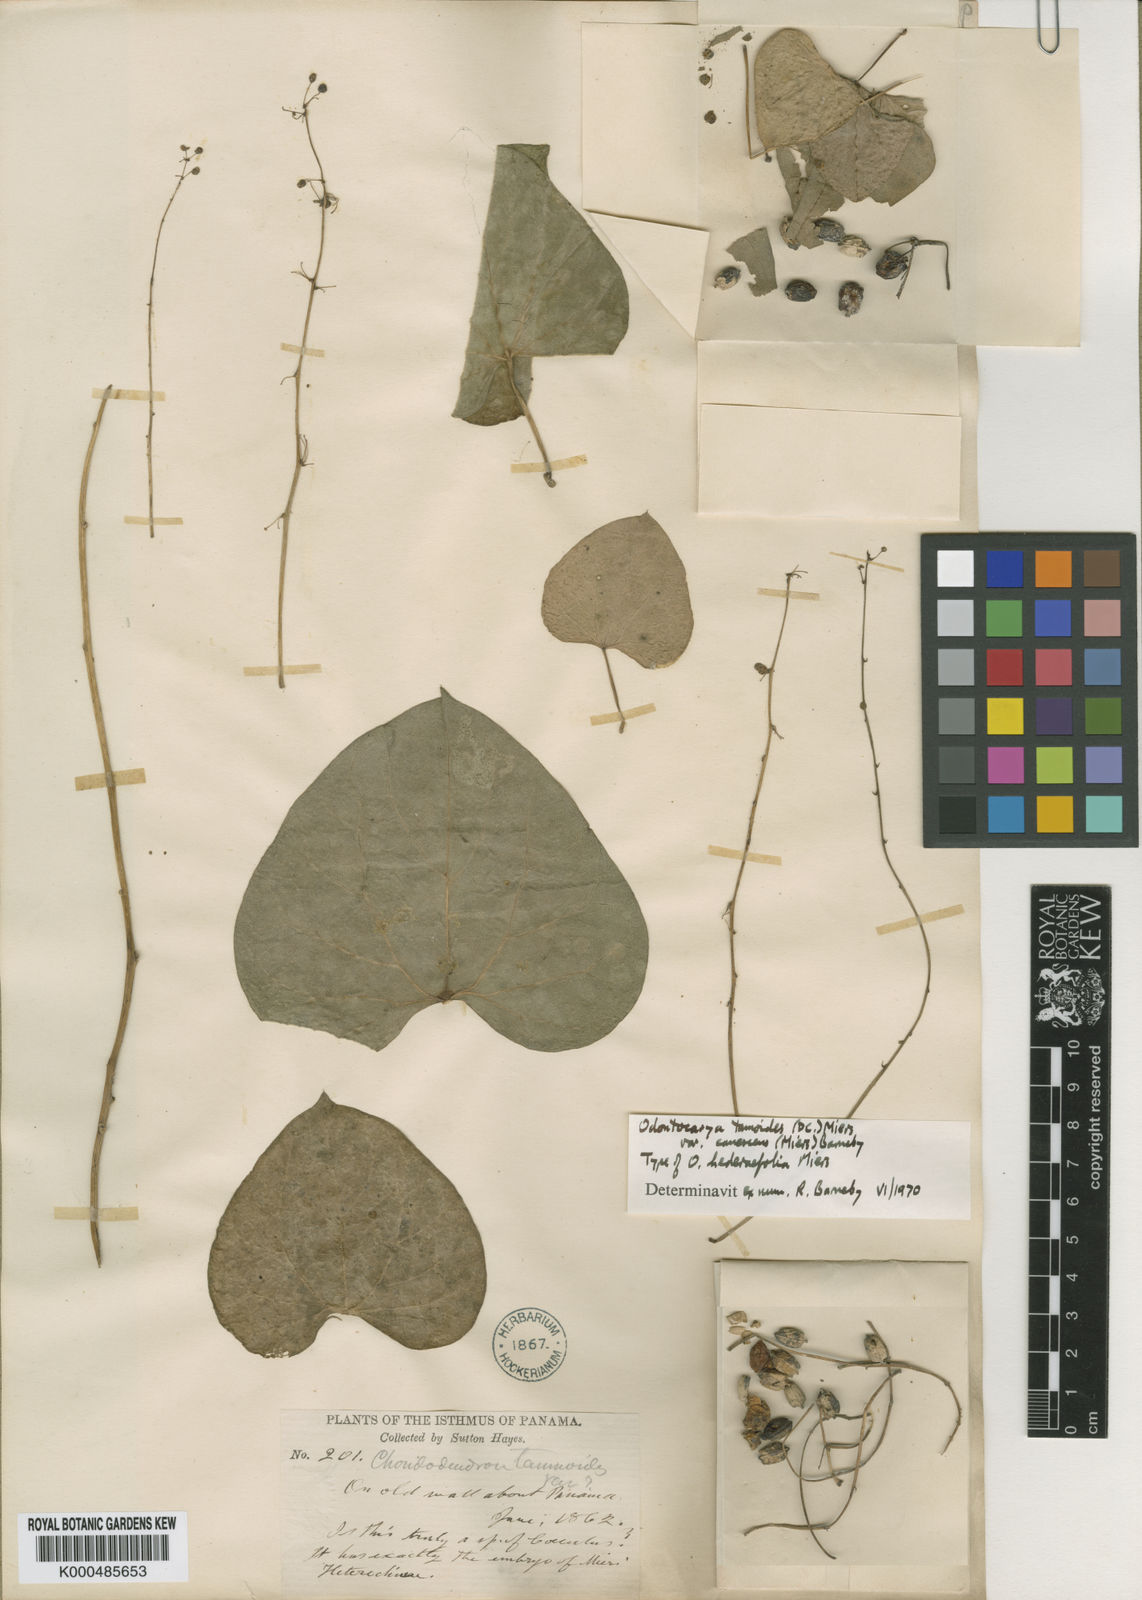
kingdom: Plantae
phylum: Tracheophyta
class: Magnoliopsida
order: Ranunculales
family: Menispermaceae
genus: Odontocarya
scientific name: Odontocarya tamoides
